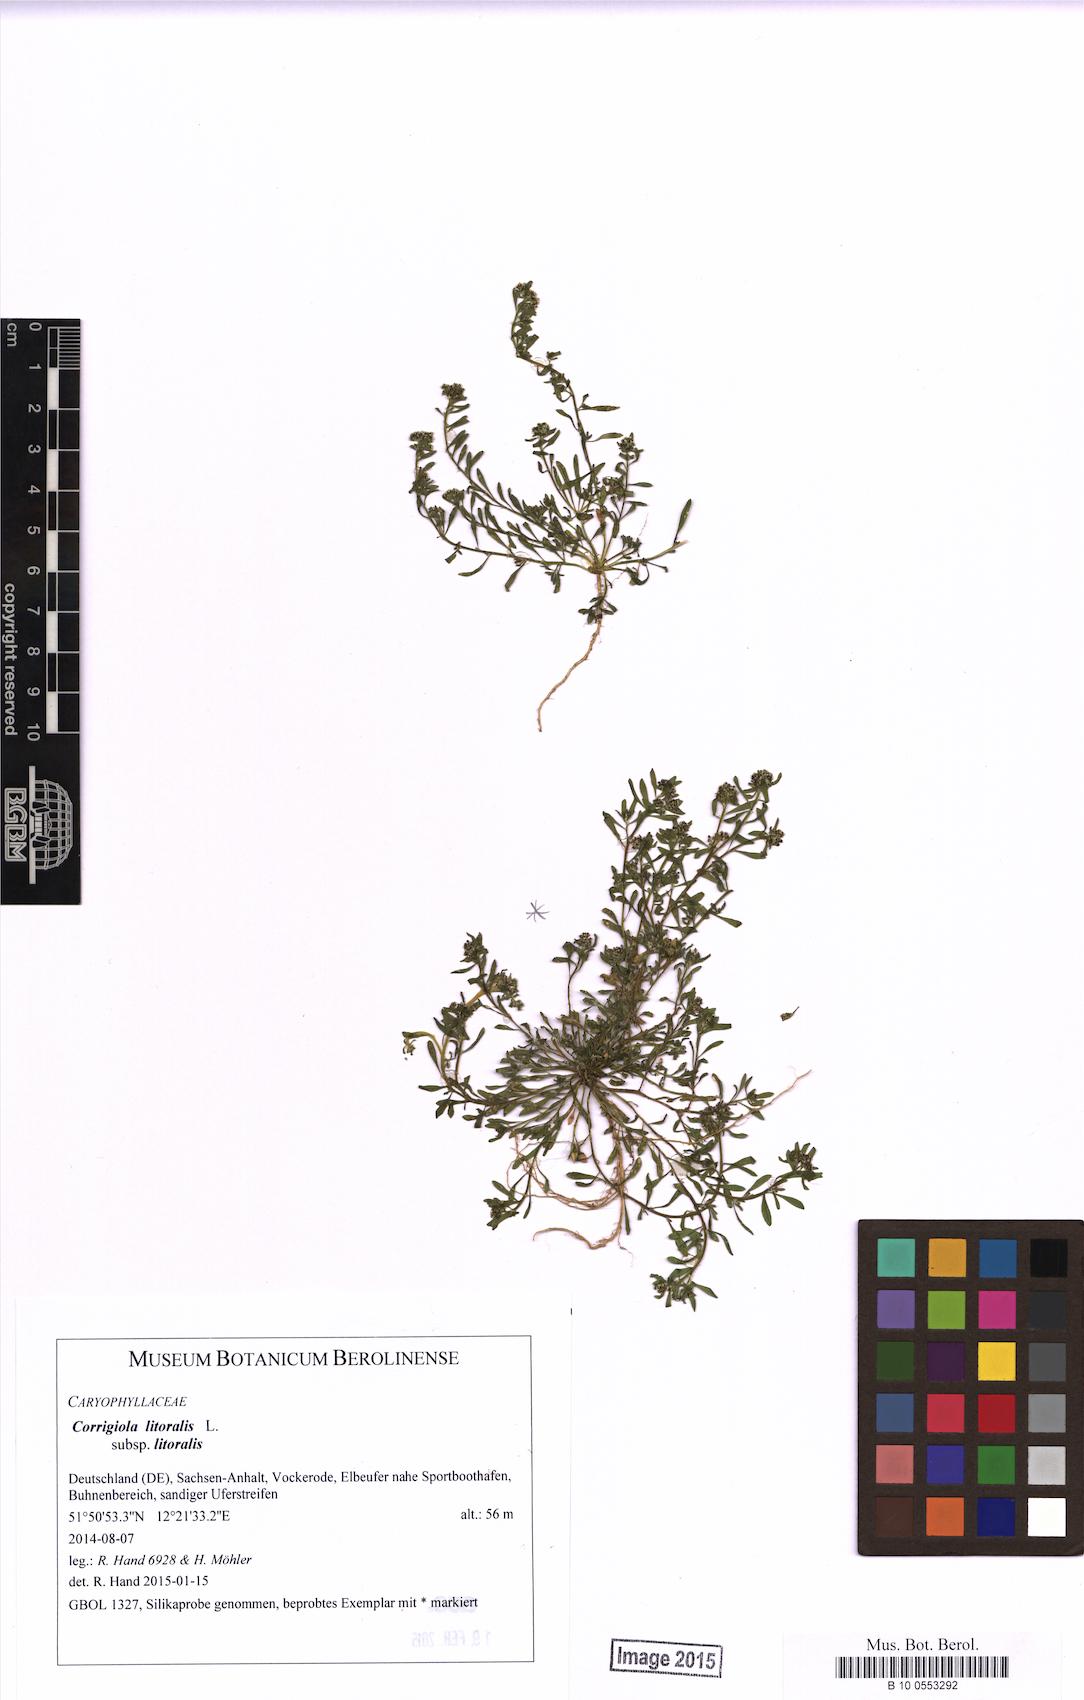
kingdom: Plantae
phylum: Tracheophyta
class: Magnoliopsida
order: Caryophyllales
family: Caryophyllaceae
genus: Corrigiola
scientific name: Corrigiola litoralis
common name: Strapwort
